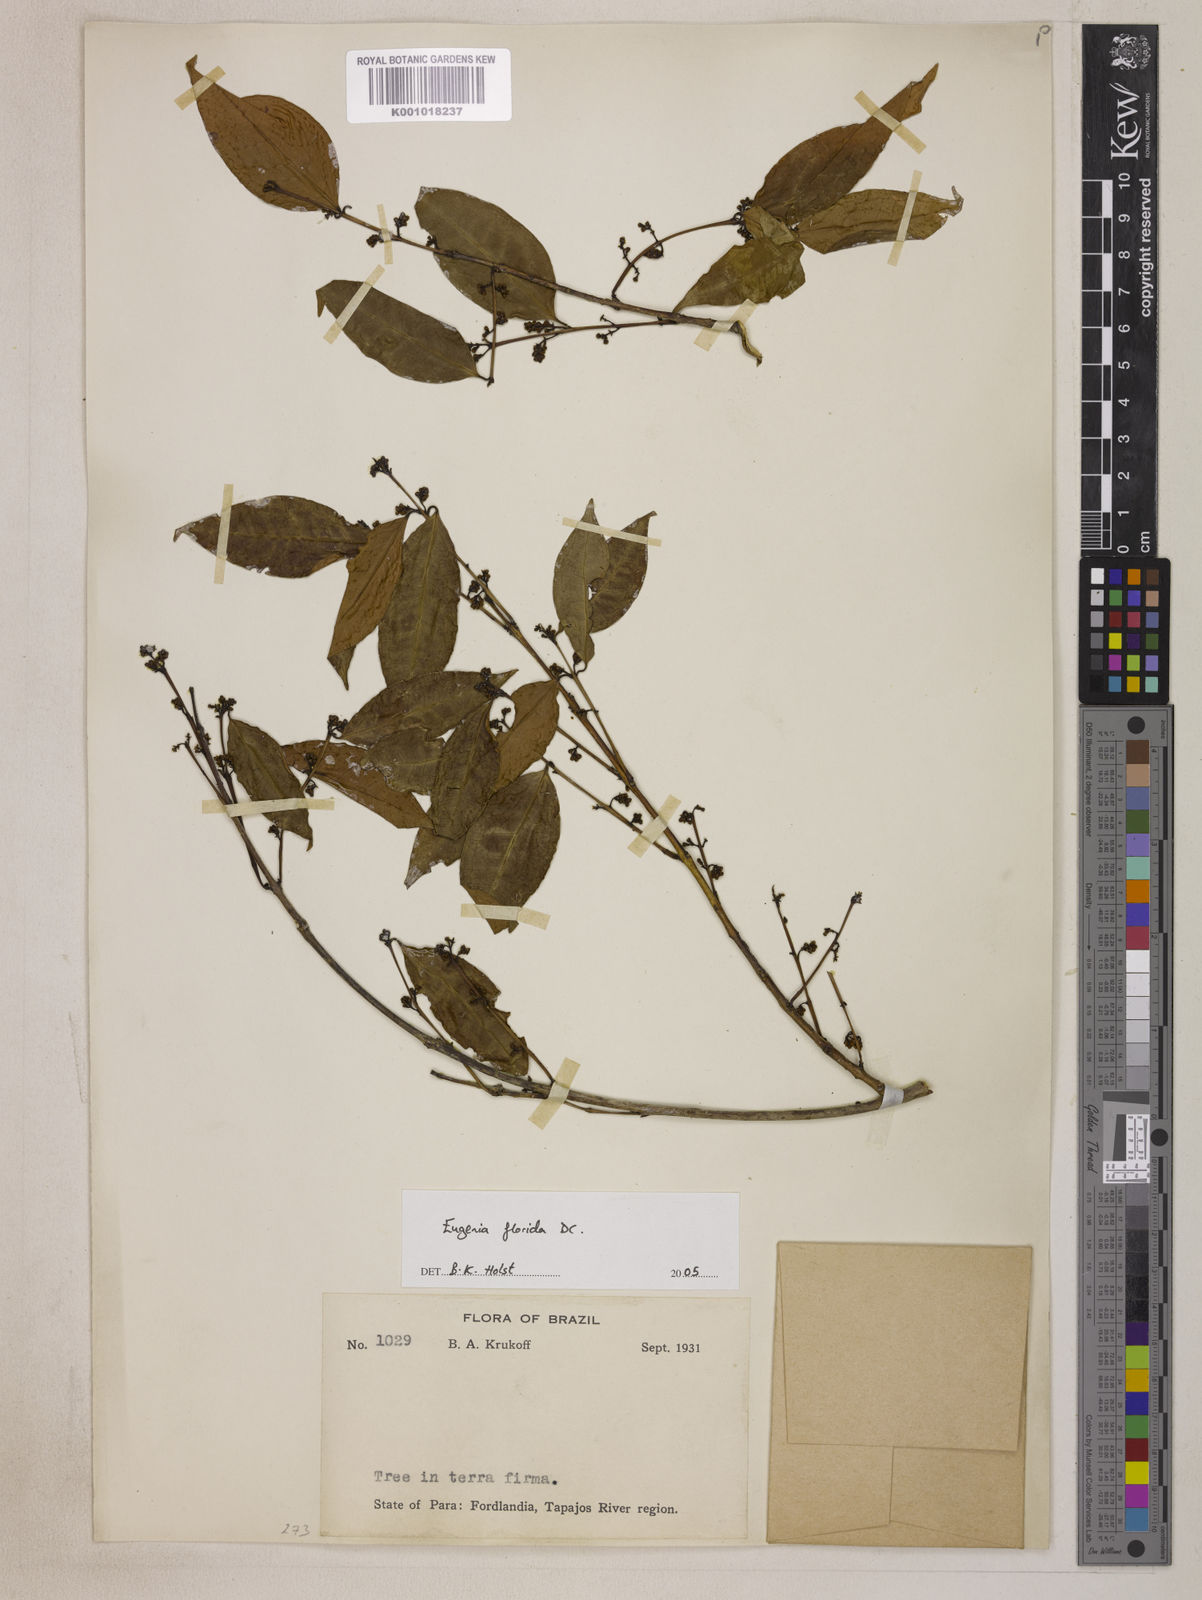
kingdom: Plantae
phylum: Tracheophyta
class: Magnoliopsida
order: Myrtales
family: Myrtaceae
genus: Eugenia
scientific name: Eugenia florida
